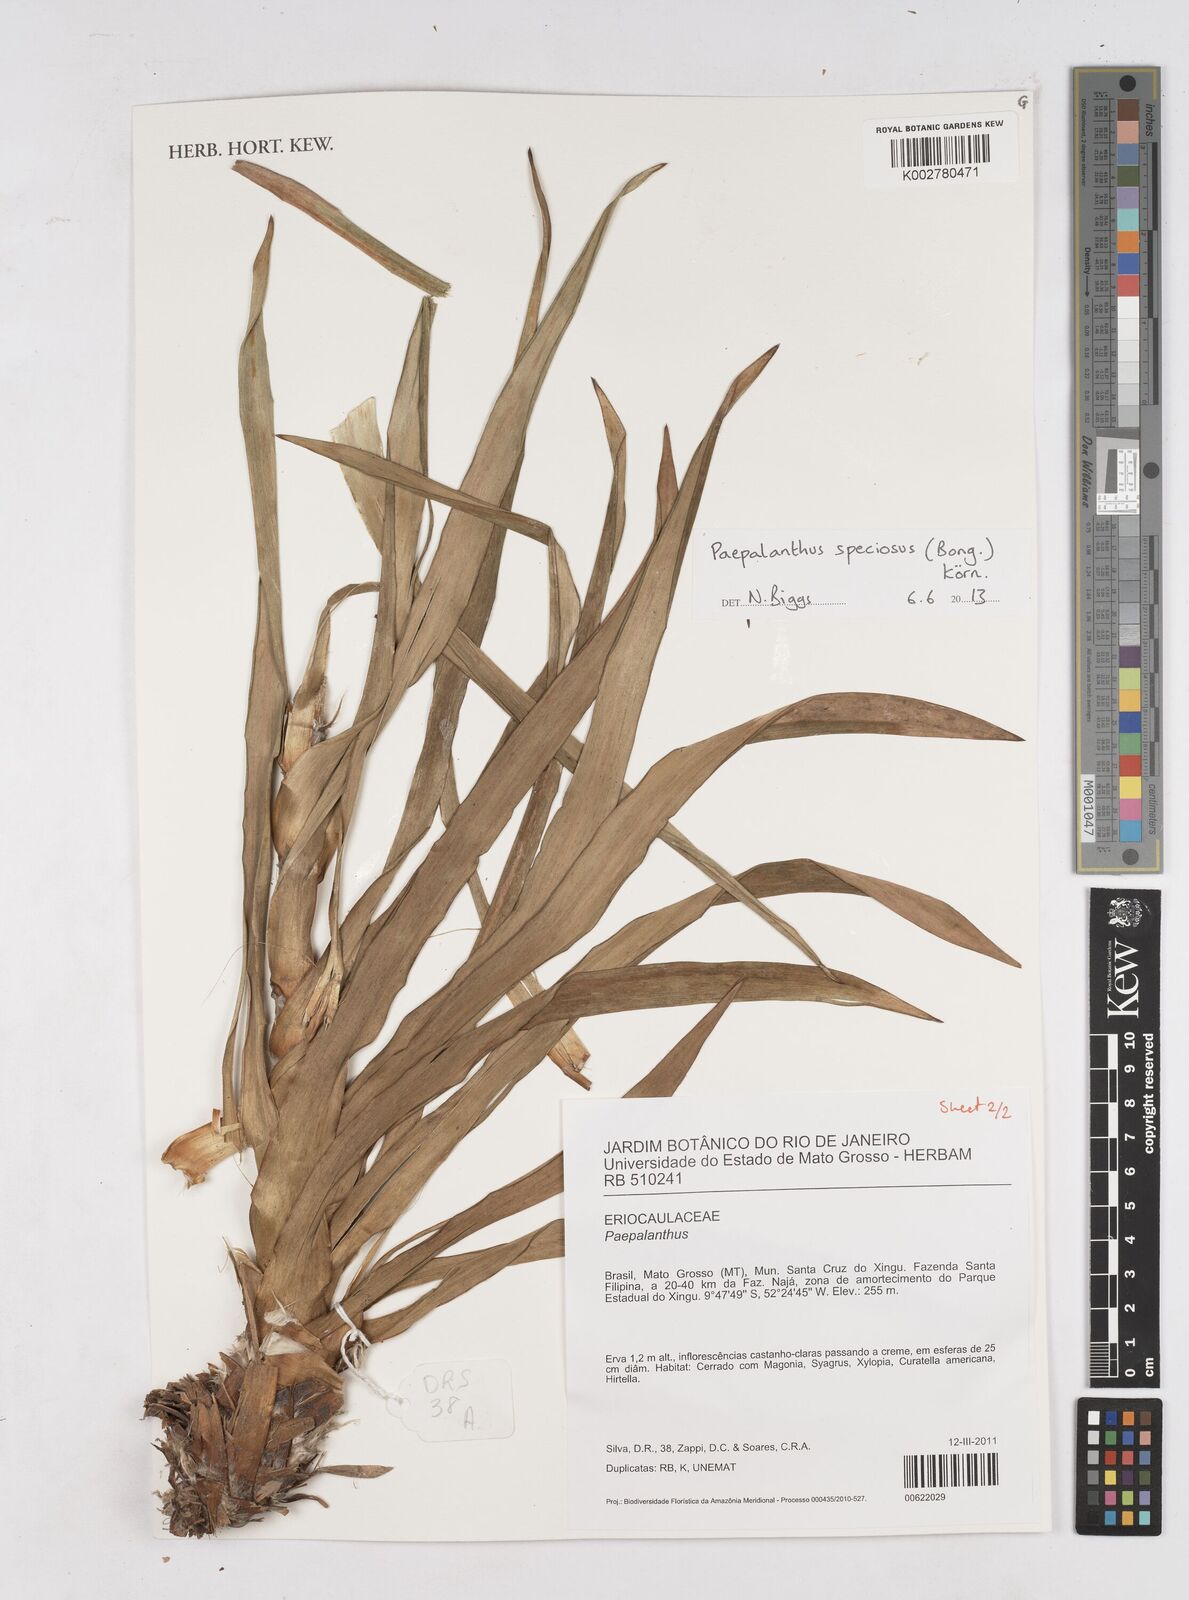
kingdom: Plantae
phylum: Tracheophyta
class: Liliopsida
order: Poales
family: Eriocaulaceae
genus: Paepalanthus
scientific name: Paepalanthus chiquitensis
